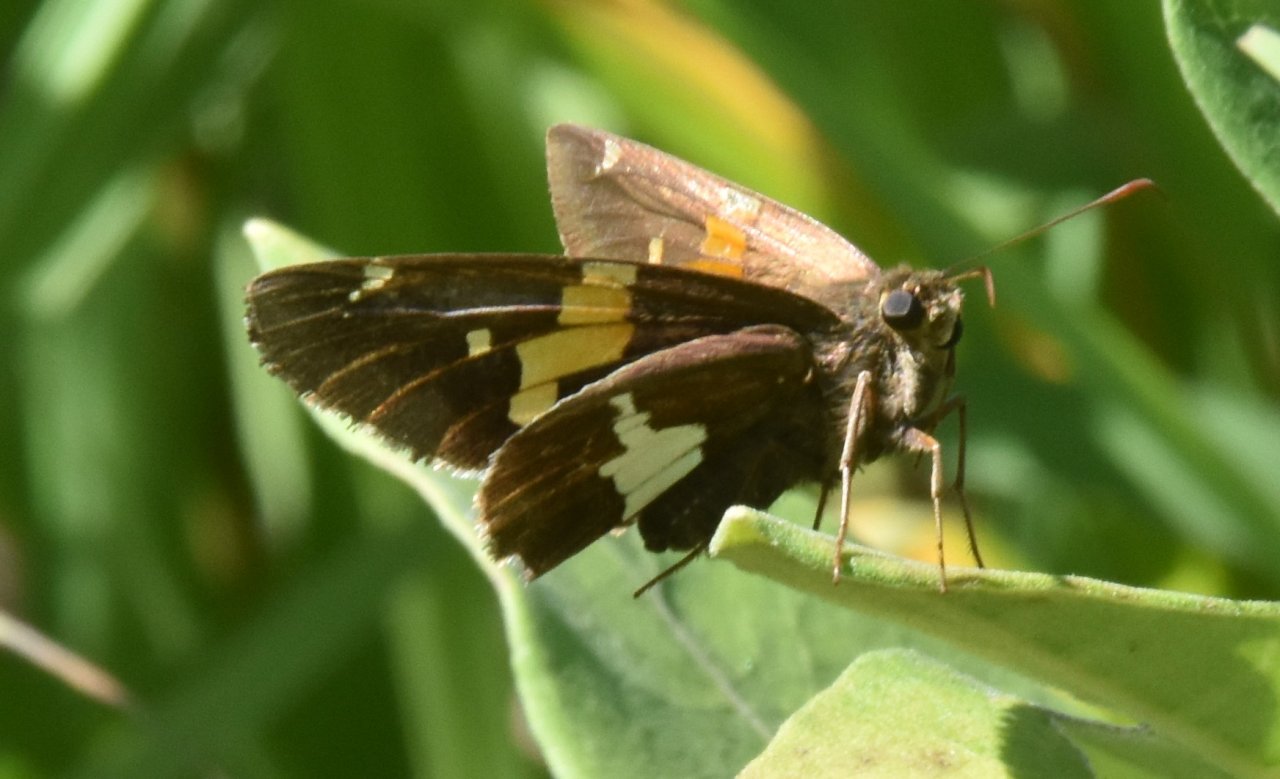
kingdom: Animalia
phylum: Arthropoda
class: Insecta
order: Lepidoptera
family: Hesperiidae
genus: Epargyreus
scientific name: Epargyreus clarus
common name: Silver-spotted Skipper
